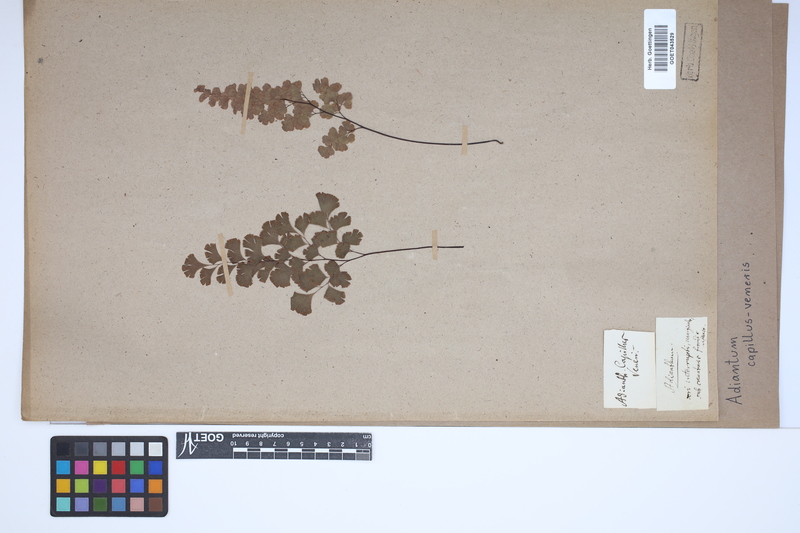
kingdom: Plantae
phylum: Tracheophyta
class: Polypodiopsida
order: Polypodiales
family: Pteridaceae
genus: Adiantum
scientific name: Adiantum capillus-veneris
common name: Maidenhair fern
